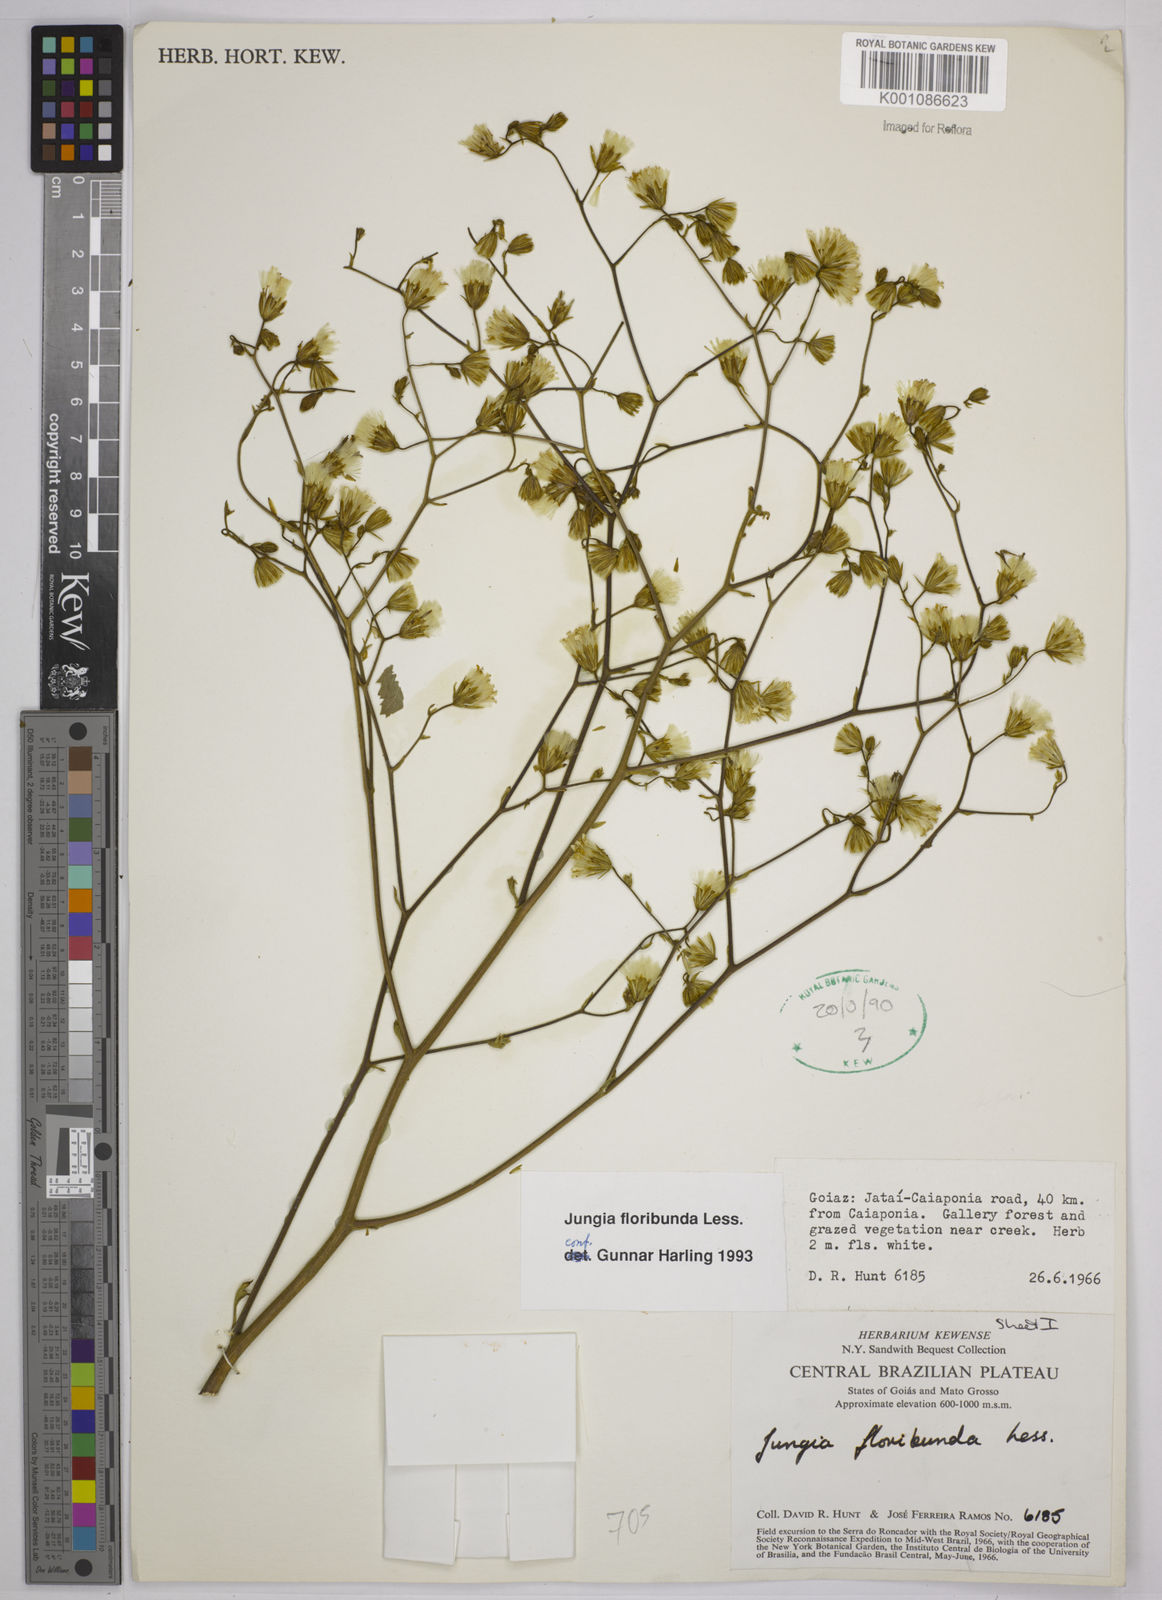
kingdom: Plantae
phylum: Tracheophyta
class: Magnoliopsida
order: Asterales
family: Asteraceae
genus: Jungia
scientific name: Jungia floribunda
